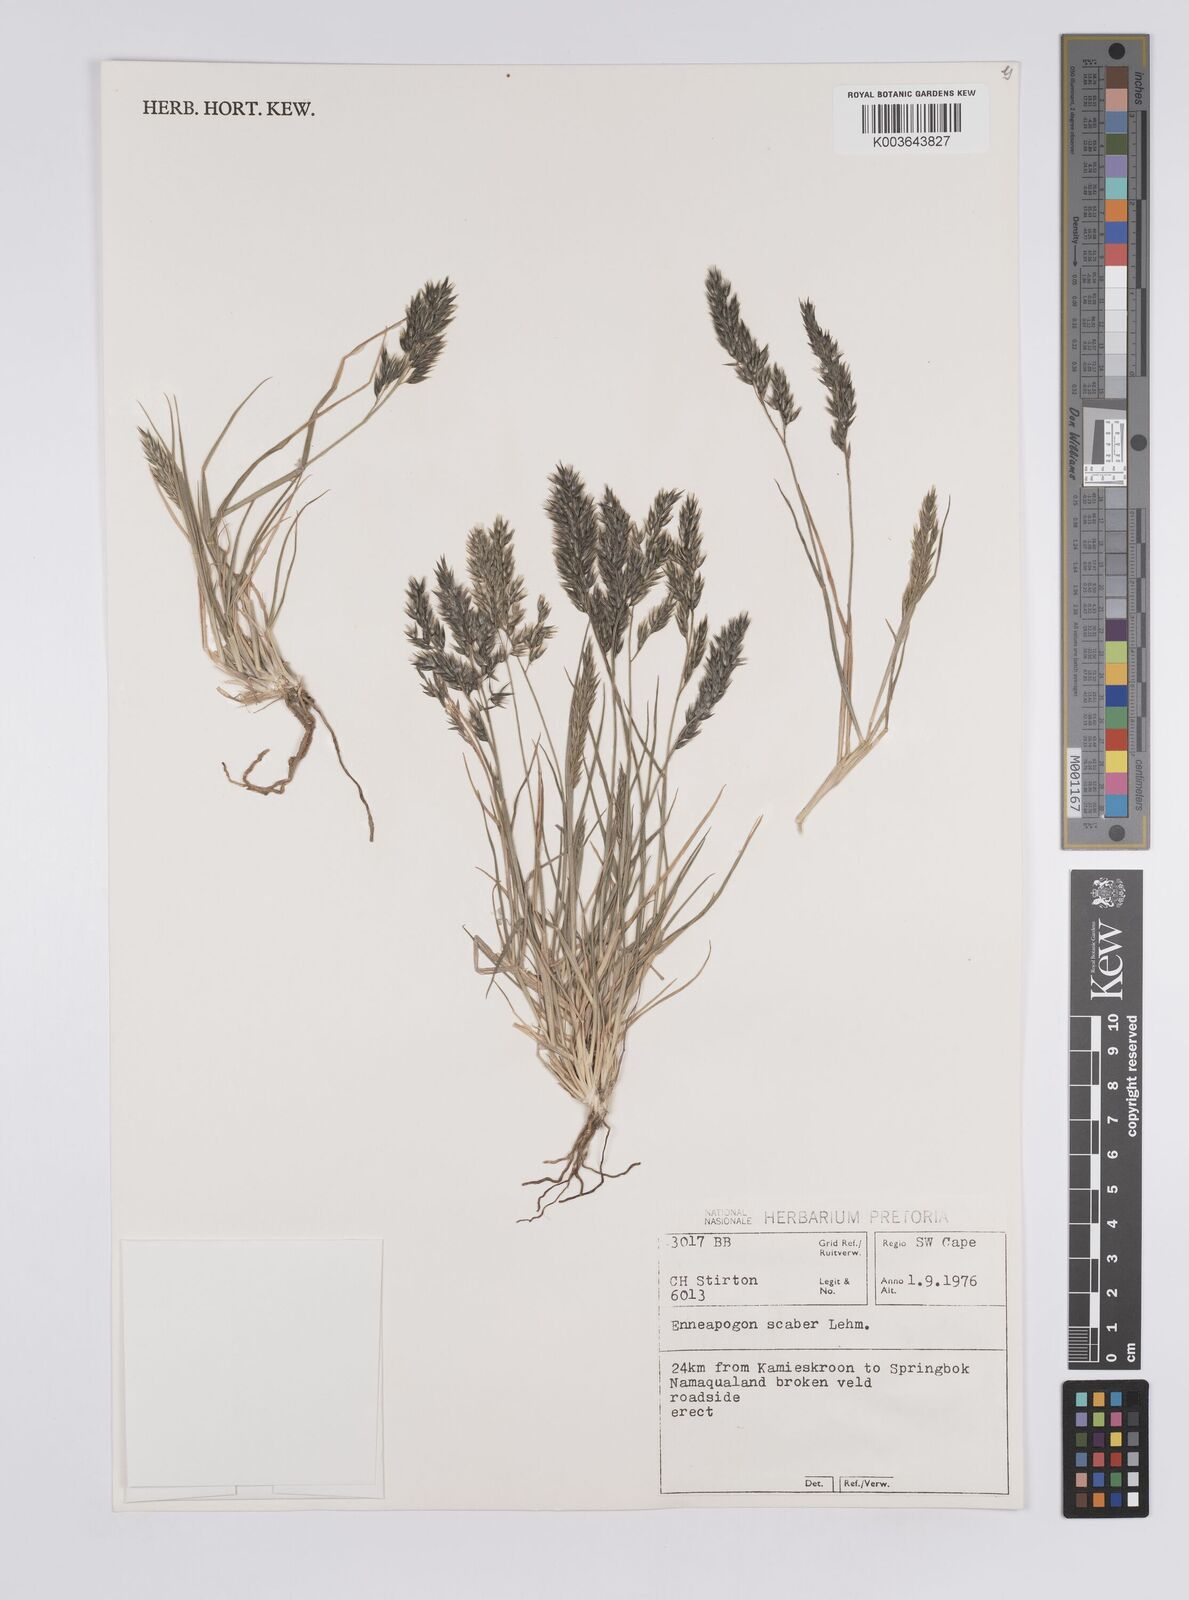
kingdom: Plantae
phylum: Tracheophyta
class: Liliopsida
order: Poales
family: Poaceae
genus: Enneapogon
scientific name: Enneapogon scaber
